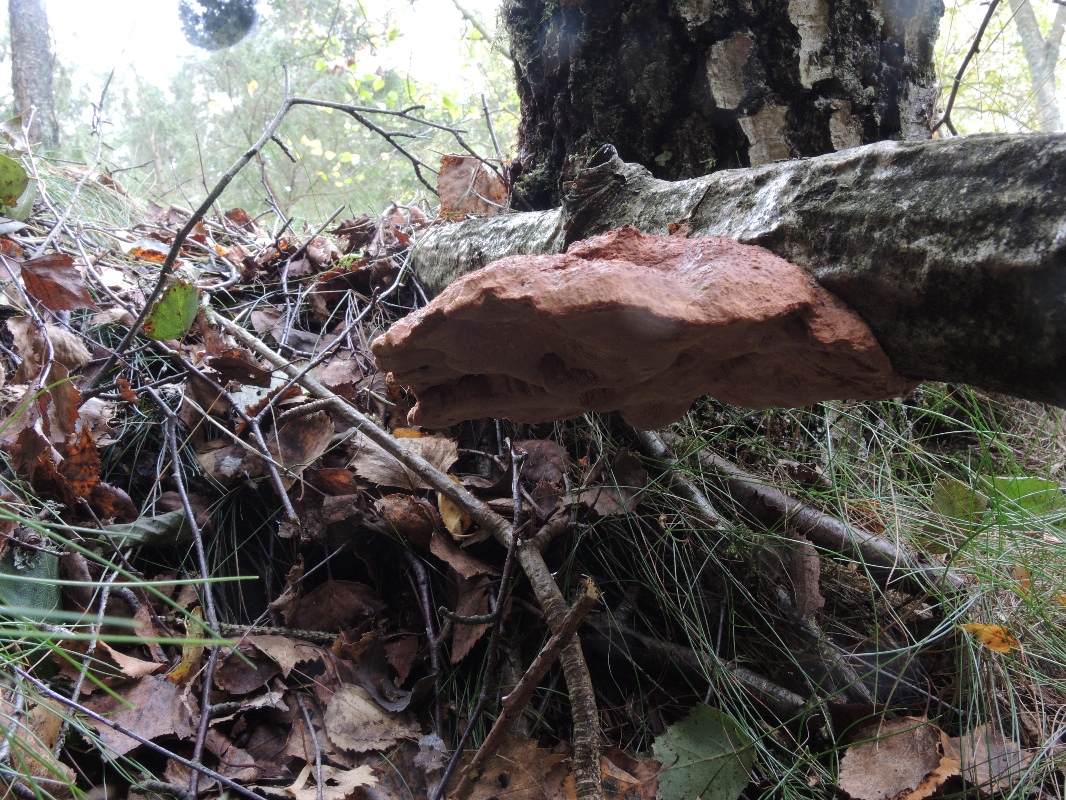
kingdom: Fungi
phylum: Basidiomycota
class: Agaricomycetes
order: Polyporales
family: Phanerochaetaceae
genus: Hapalopilus
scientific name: Hapalopilus rutilans
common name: rødlig okkerporesvamp
